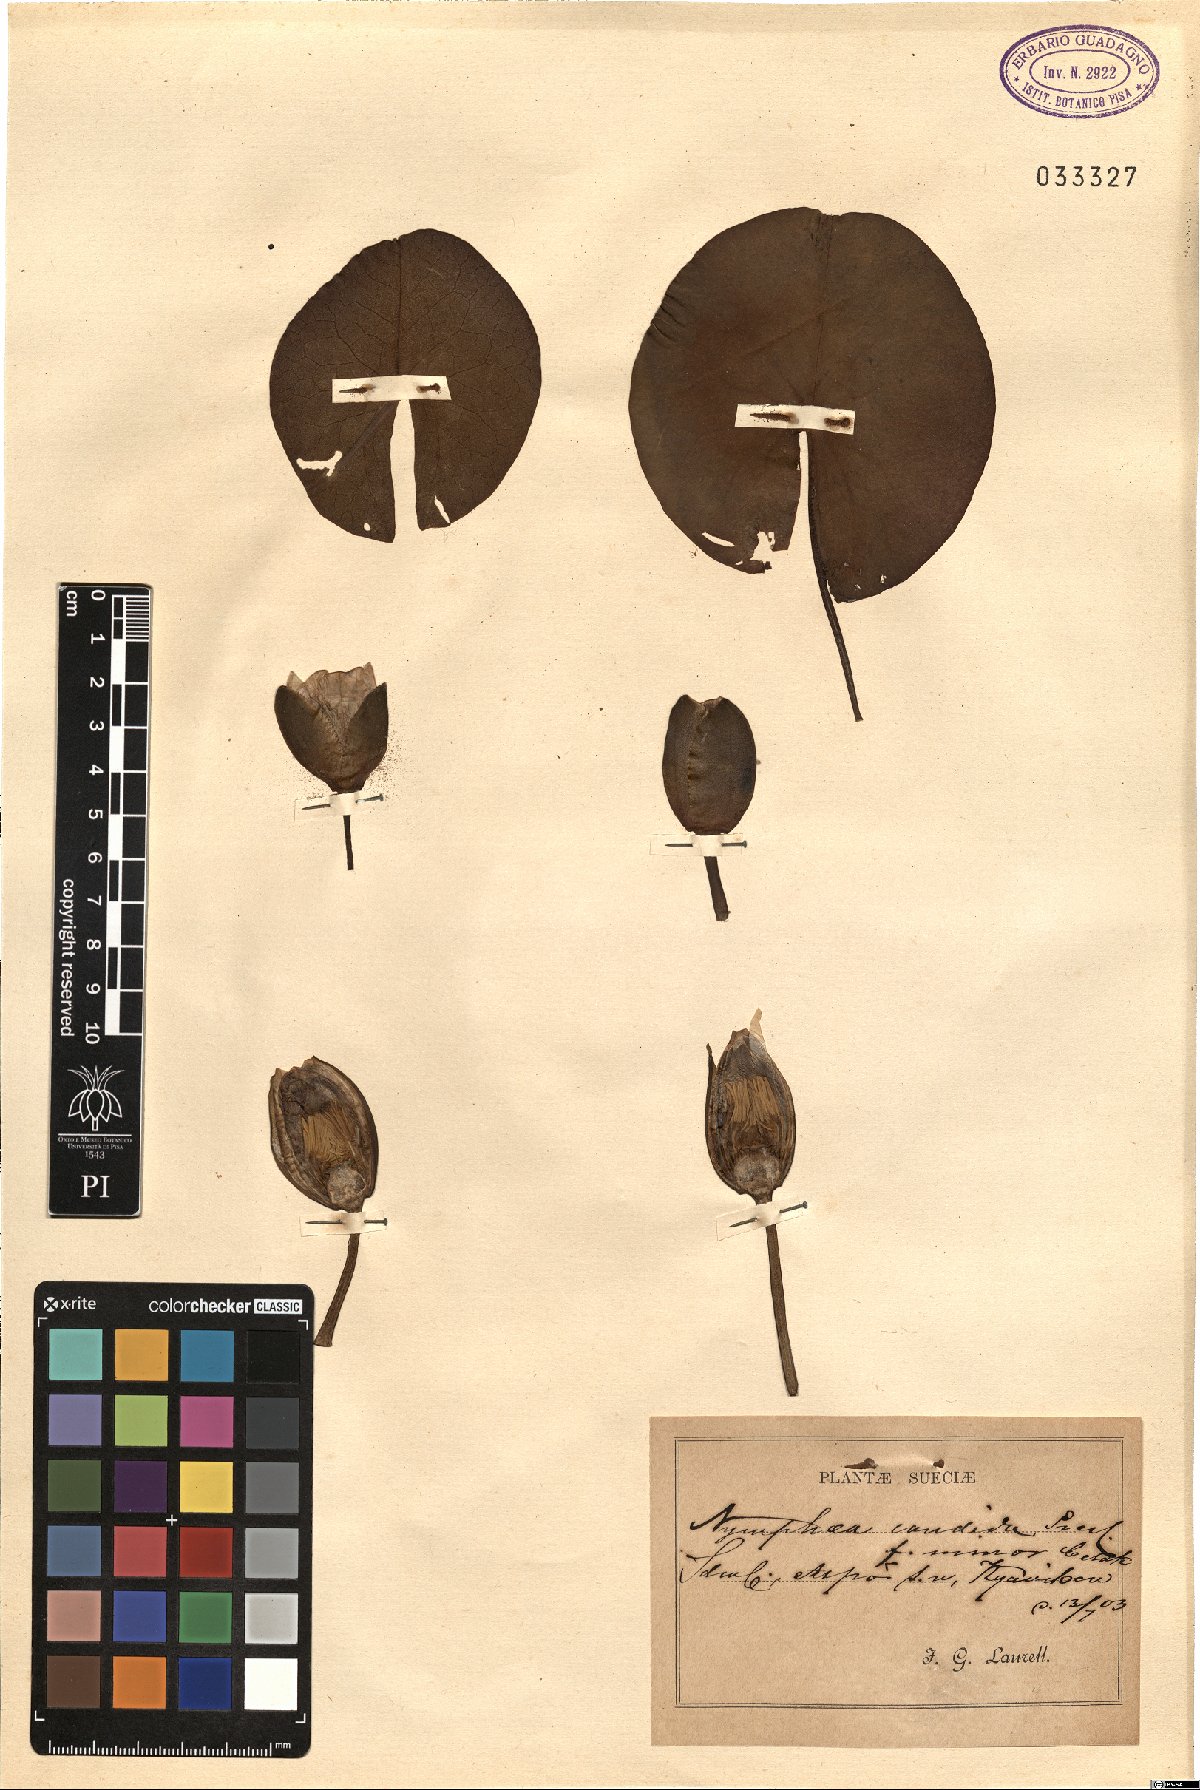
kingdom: Plantae
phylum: Tracheophyta
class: Magnoliopsida
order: Nymphaeales
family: Nymphaeaceae
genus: Nymphaea
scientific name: Nymphaea candida
